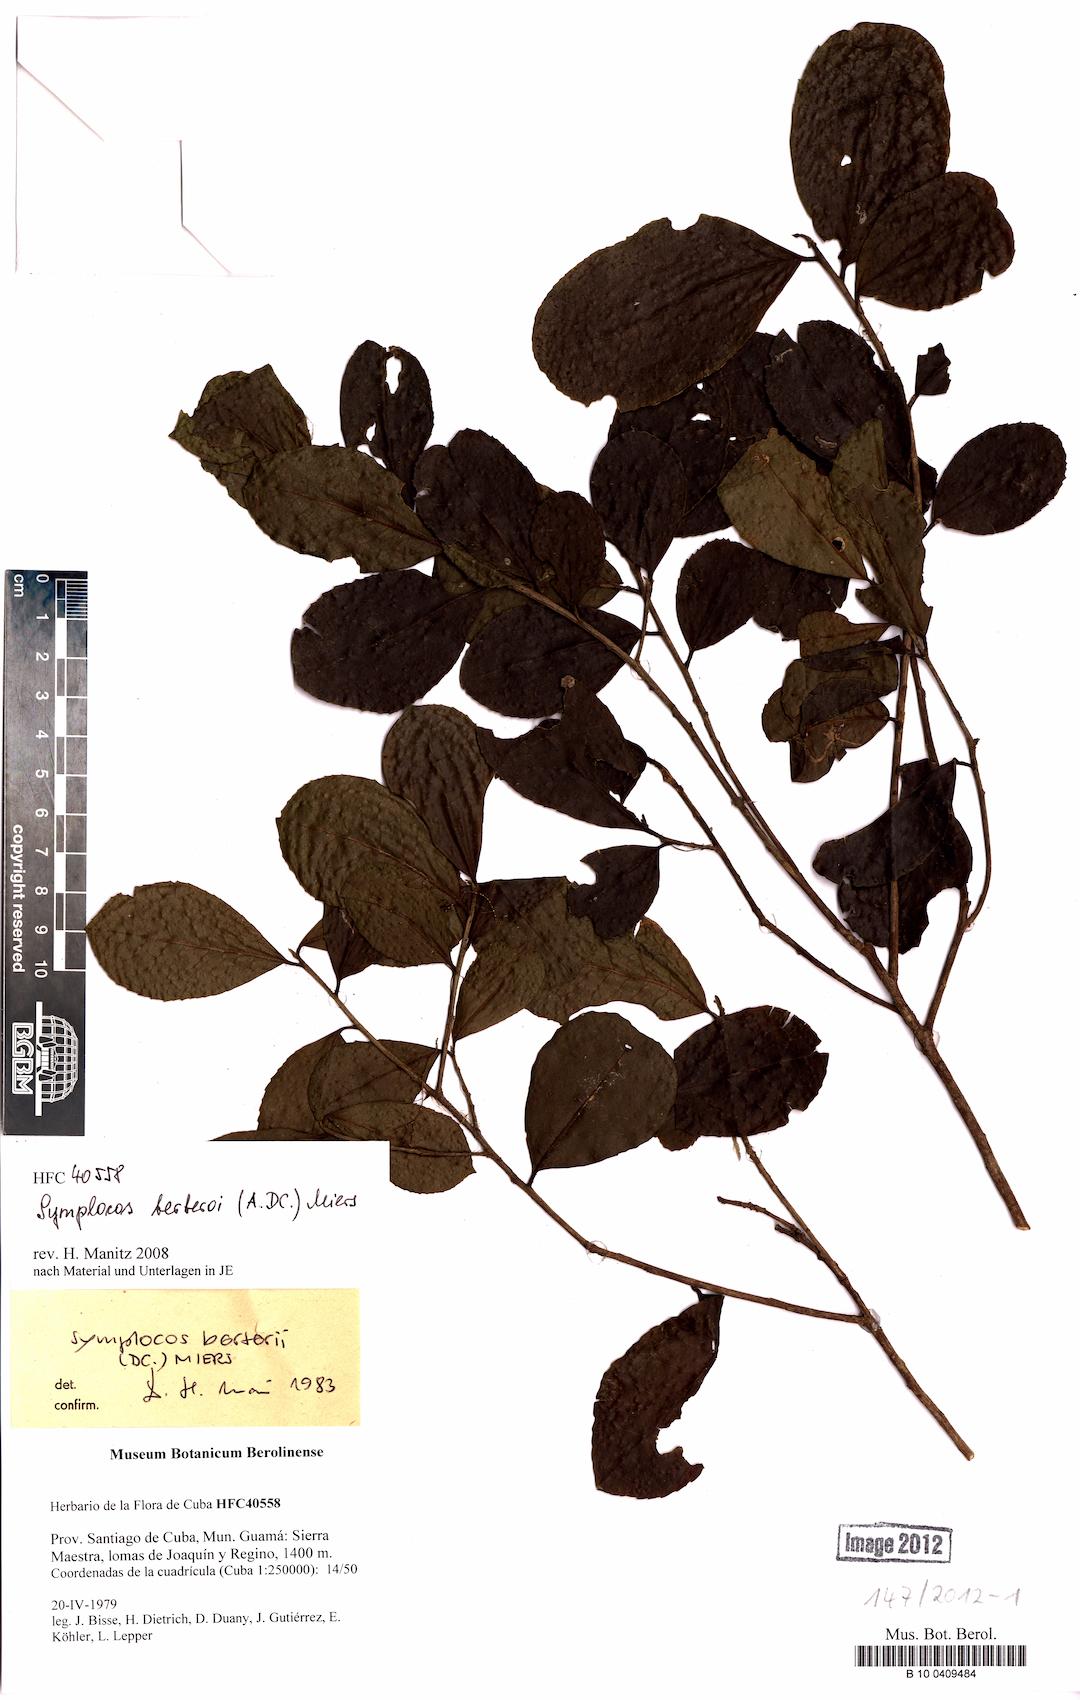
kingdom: Plantae
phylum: Tracheophyta
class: Magnoliopsida
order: Ericales
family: Symplocaceae
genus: Symplocos
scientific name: Symplocos cubensis
